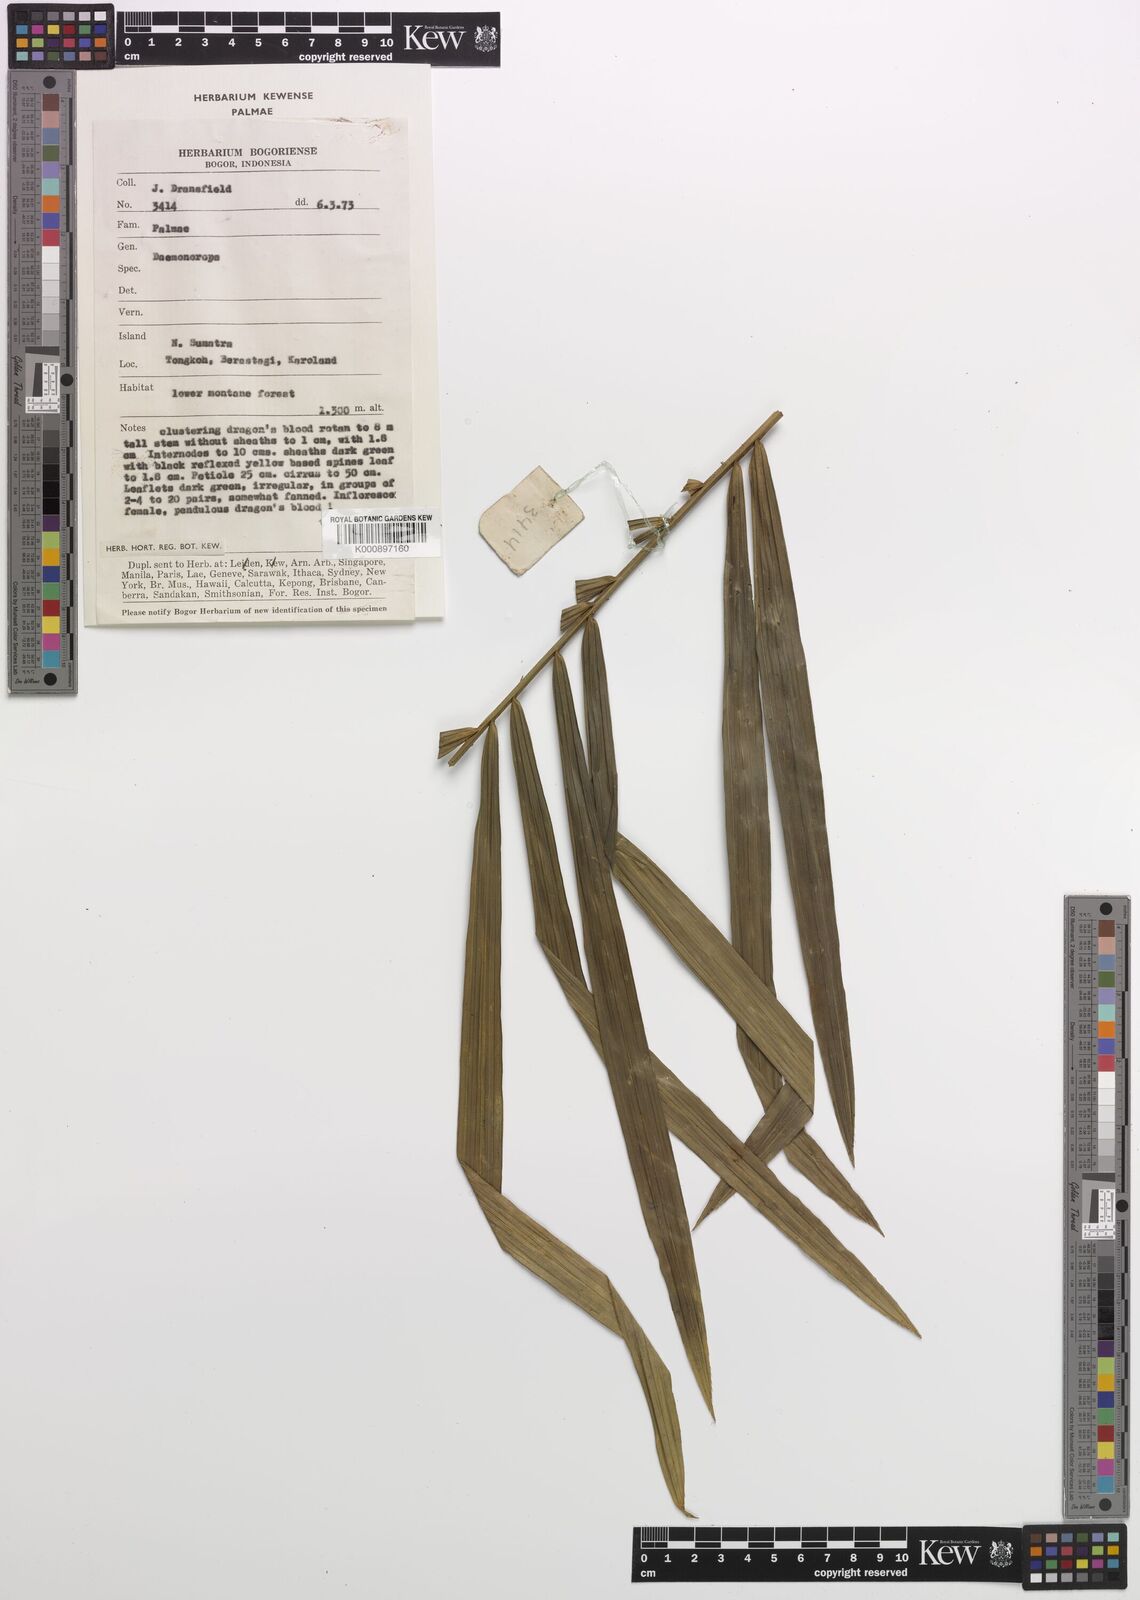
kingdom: Plantae
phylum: Tracheophyta
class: Liliopsida
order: Arecales
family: Arecaceae
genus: Daemonorops
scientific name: Daemonorops
